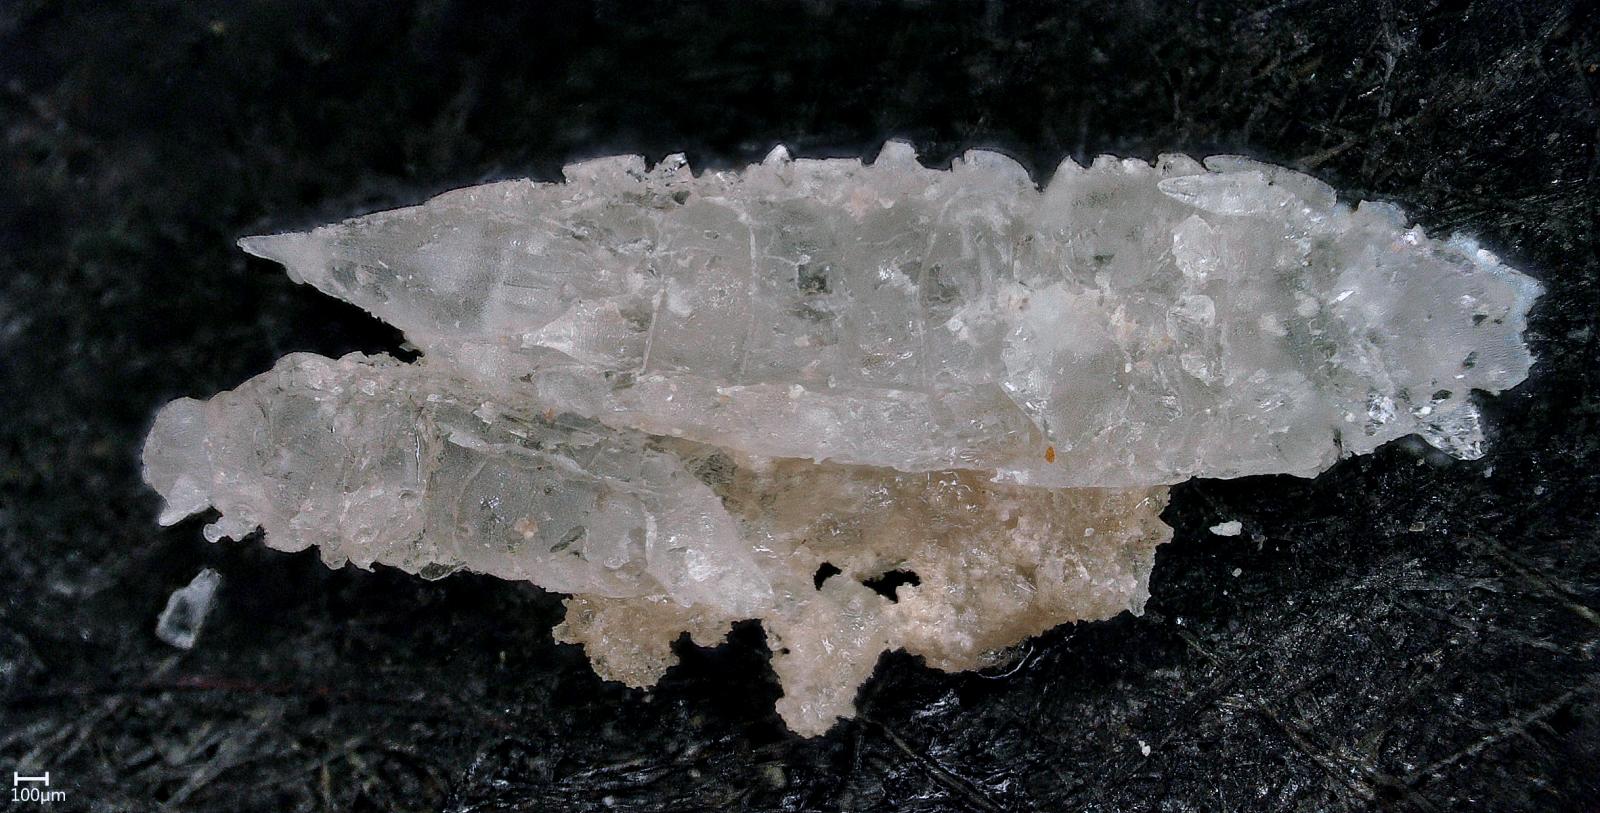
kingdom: Animalia
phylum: Arthropoda
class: Insecta
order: Hemiptera
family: Psyllidae
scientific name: Psyllidae
